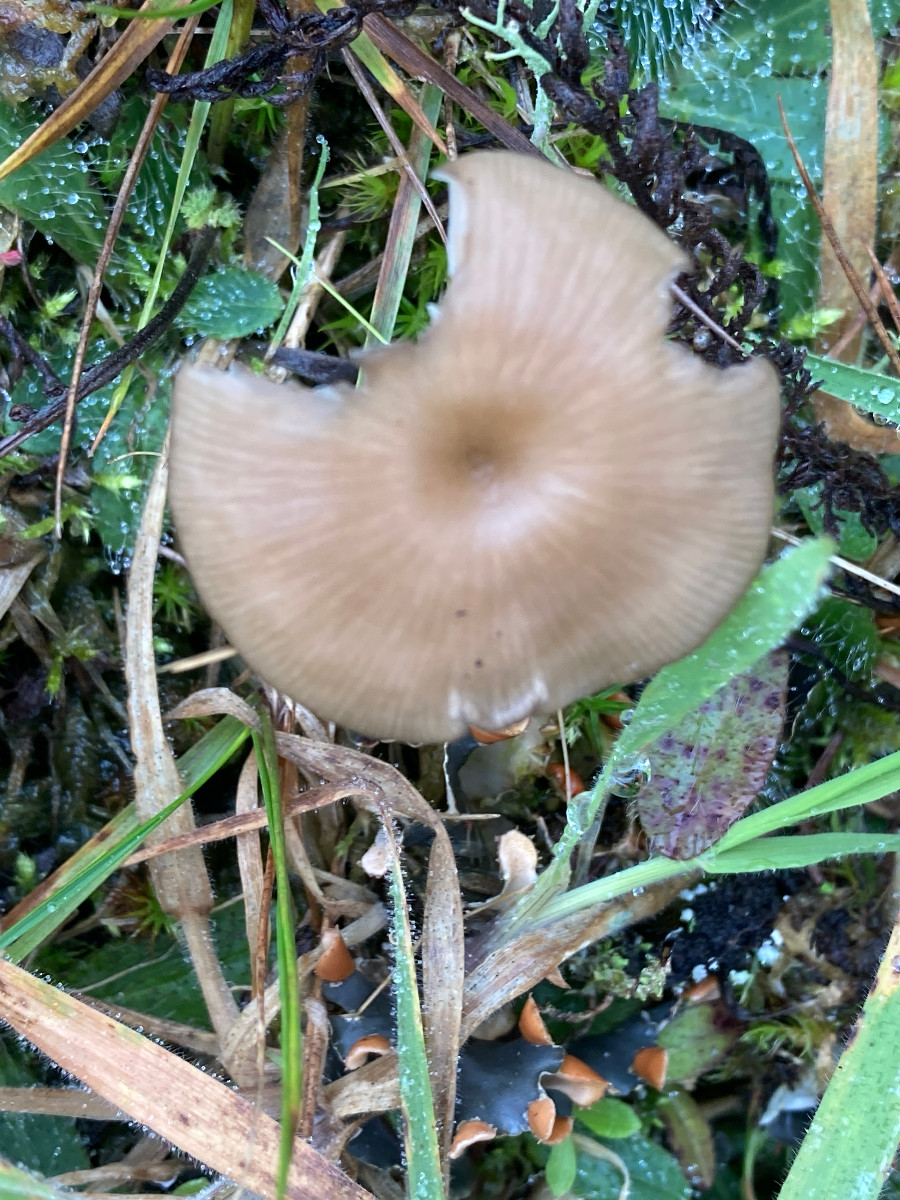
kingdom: Fungi
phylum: Basidiomycota
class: Agaricomycetes
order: Agaricales
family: Tricholomataceae
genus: Gamundia
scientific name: Gamundia xerophila
